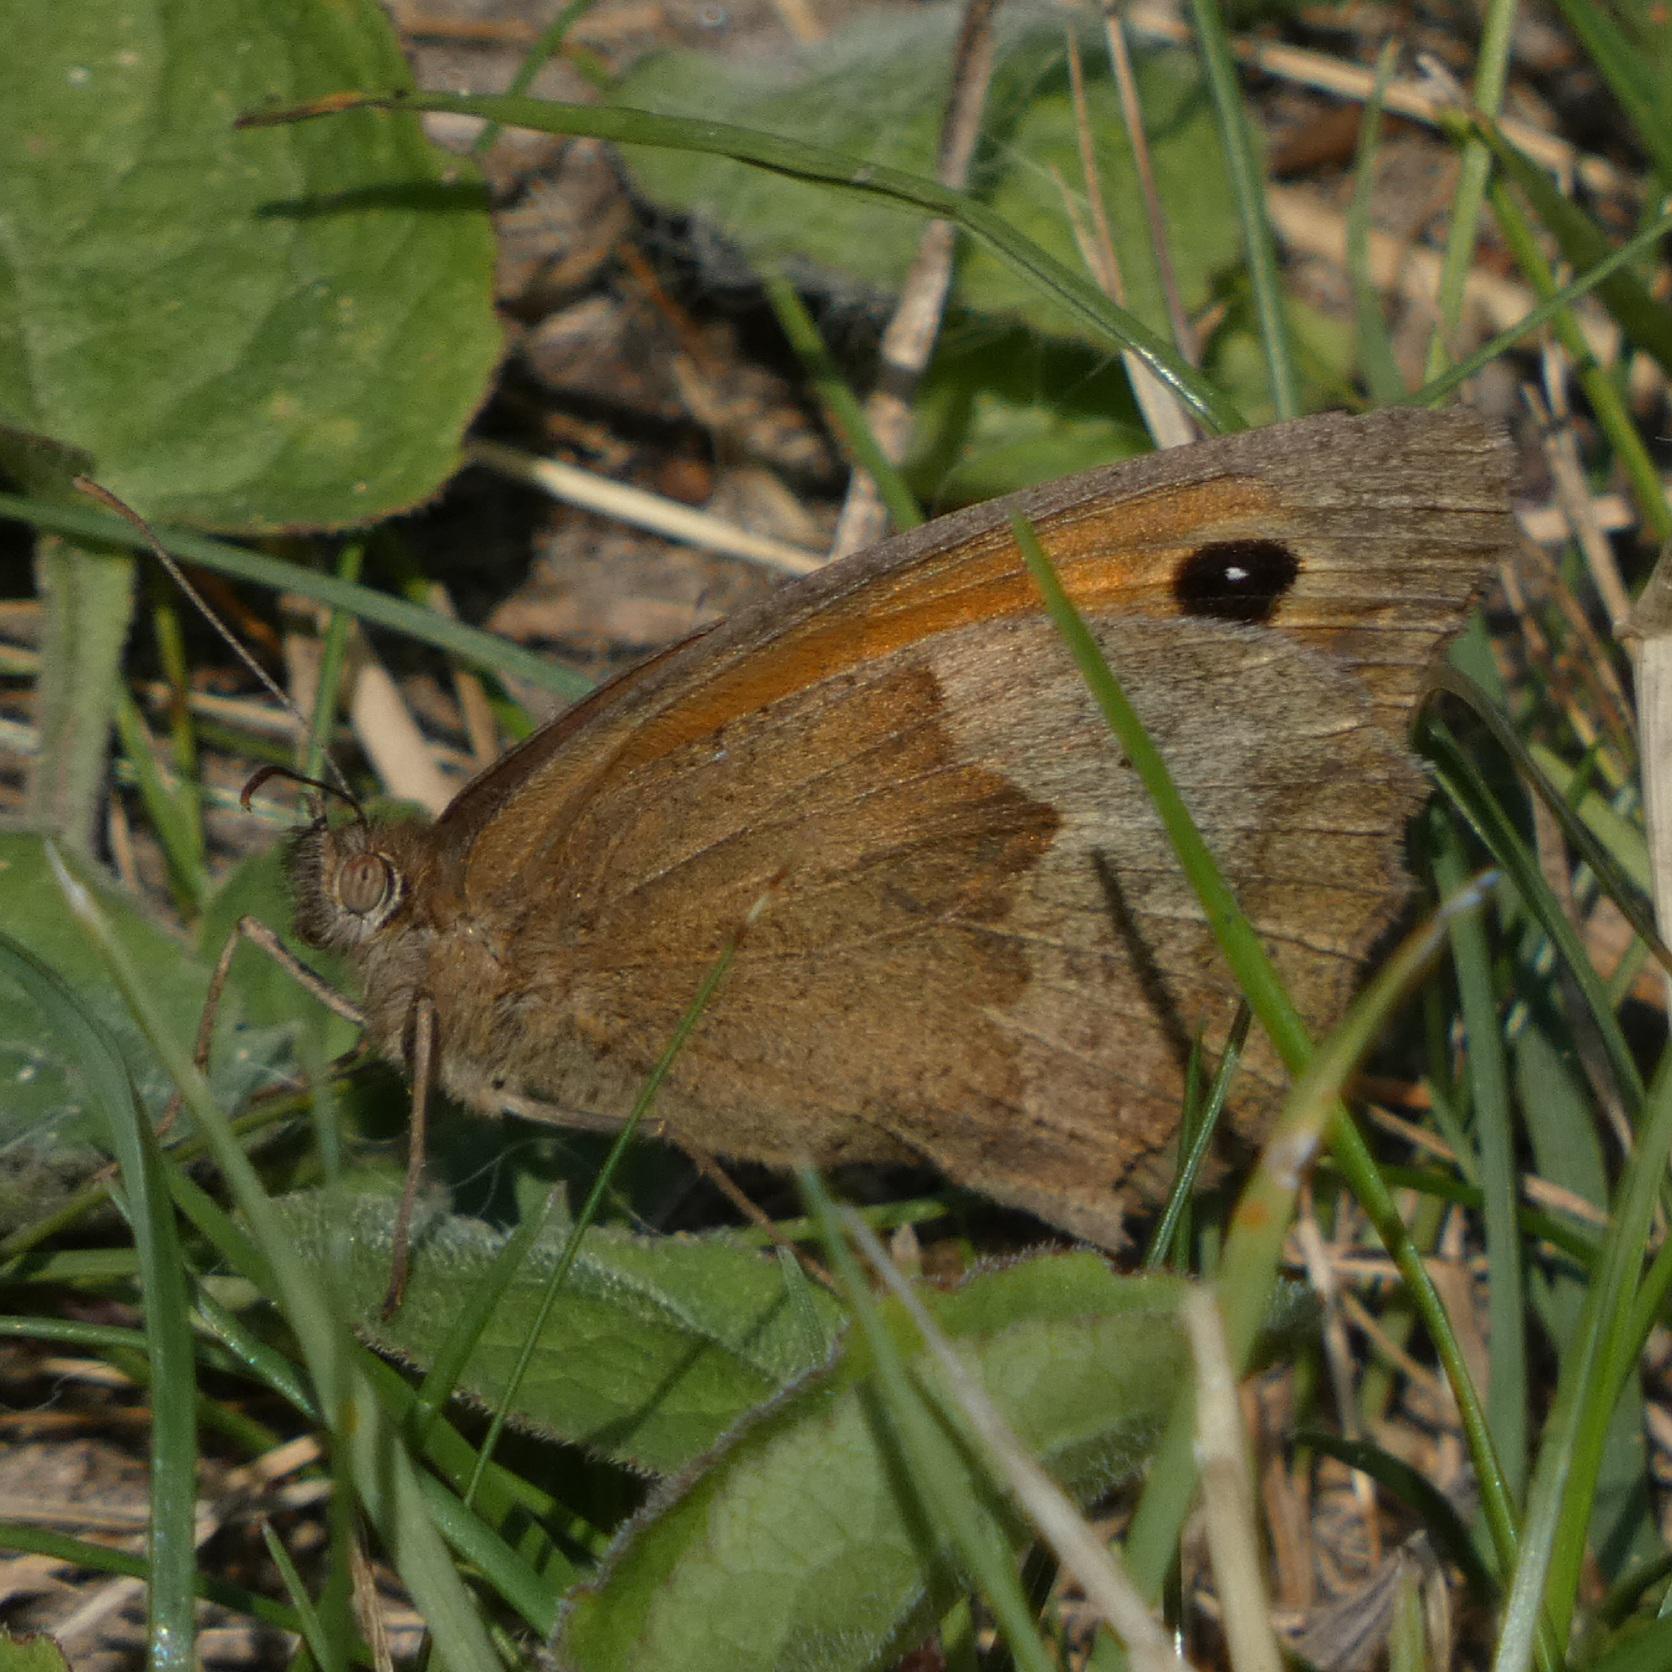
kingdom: Animalia
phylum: Arthropoda
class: Insecta
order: Lepidoptera
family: Nymphalidae
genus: Maniola
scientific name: Maniola jurtina
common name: Græsrandøje
